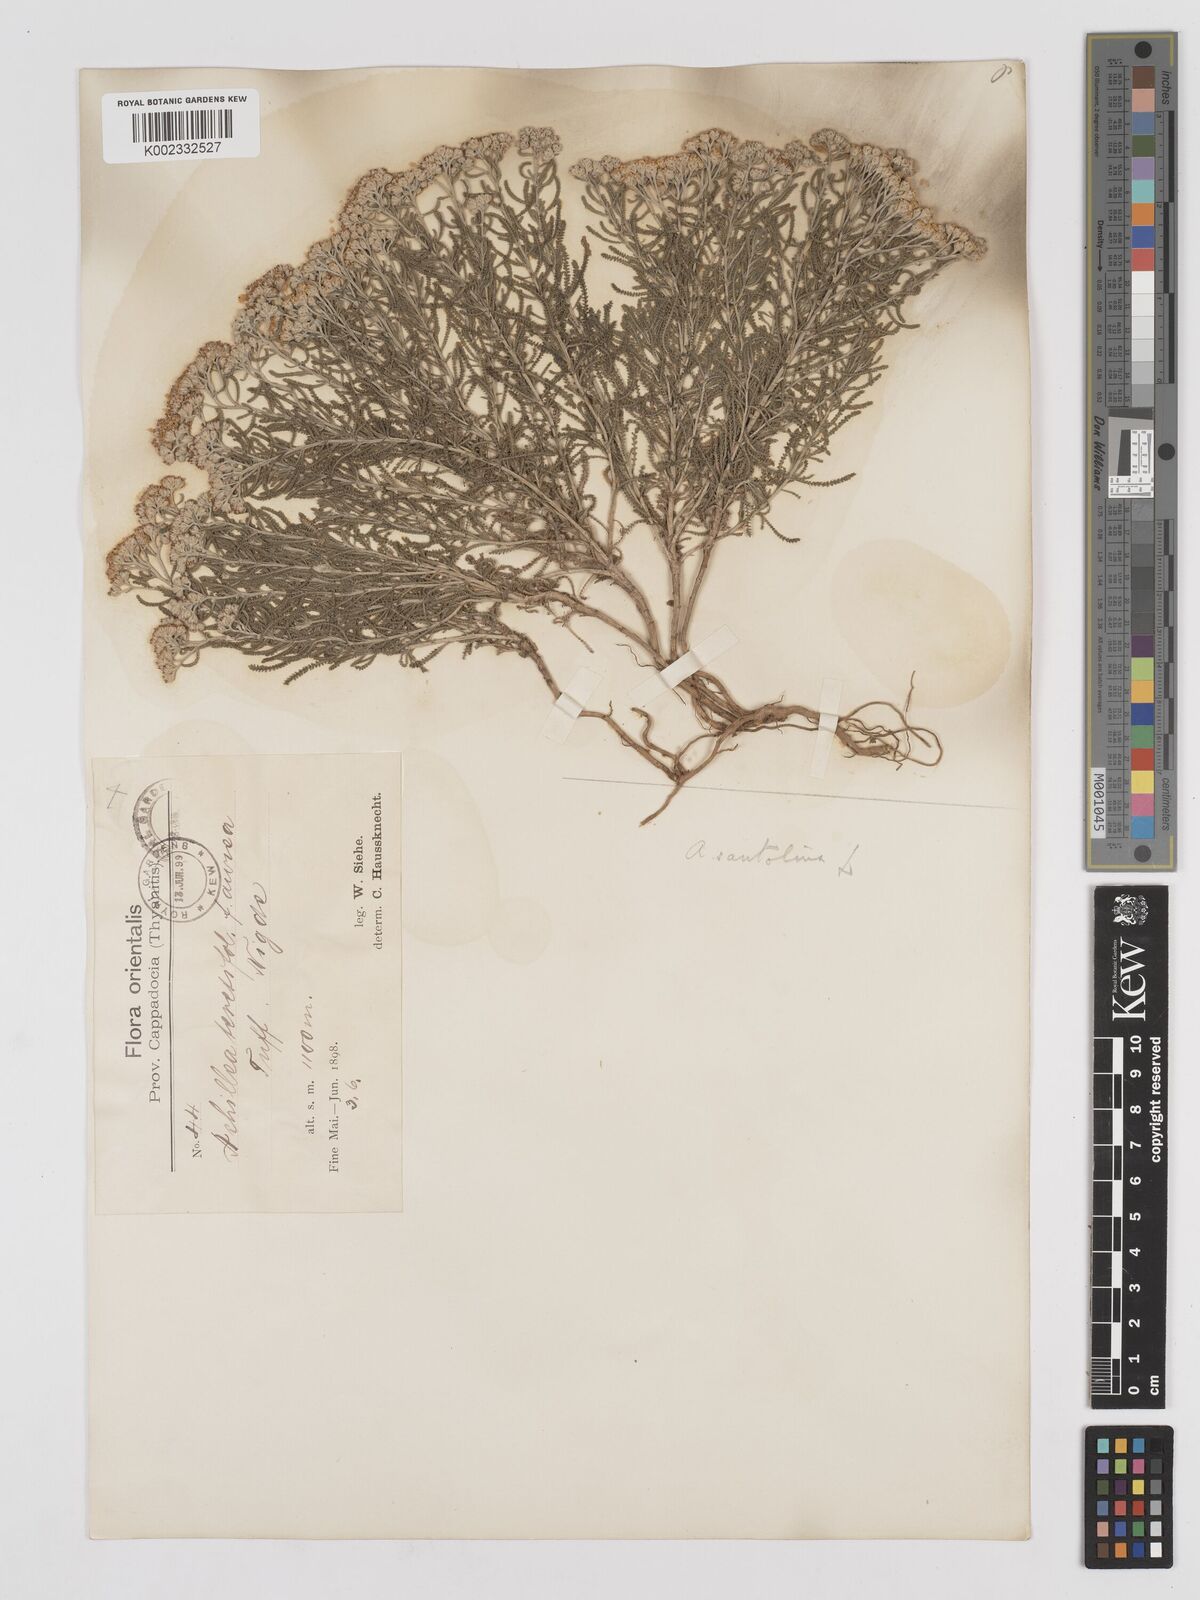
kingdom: Plantae
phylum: Tracheophyta
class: Magnoliopsida
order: Asterales
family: Asteraceae
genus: Achillea
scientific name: Achillea tenuifolia
